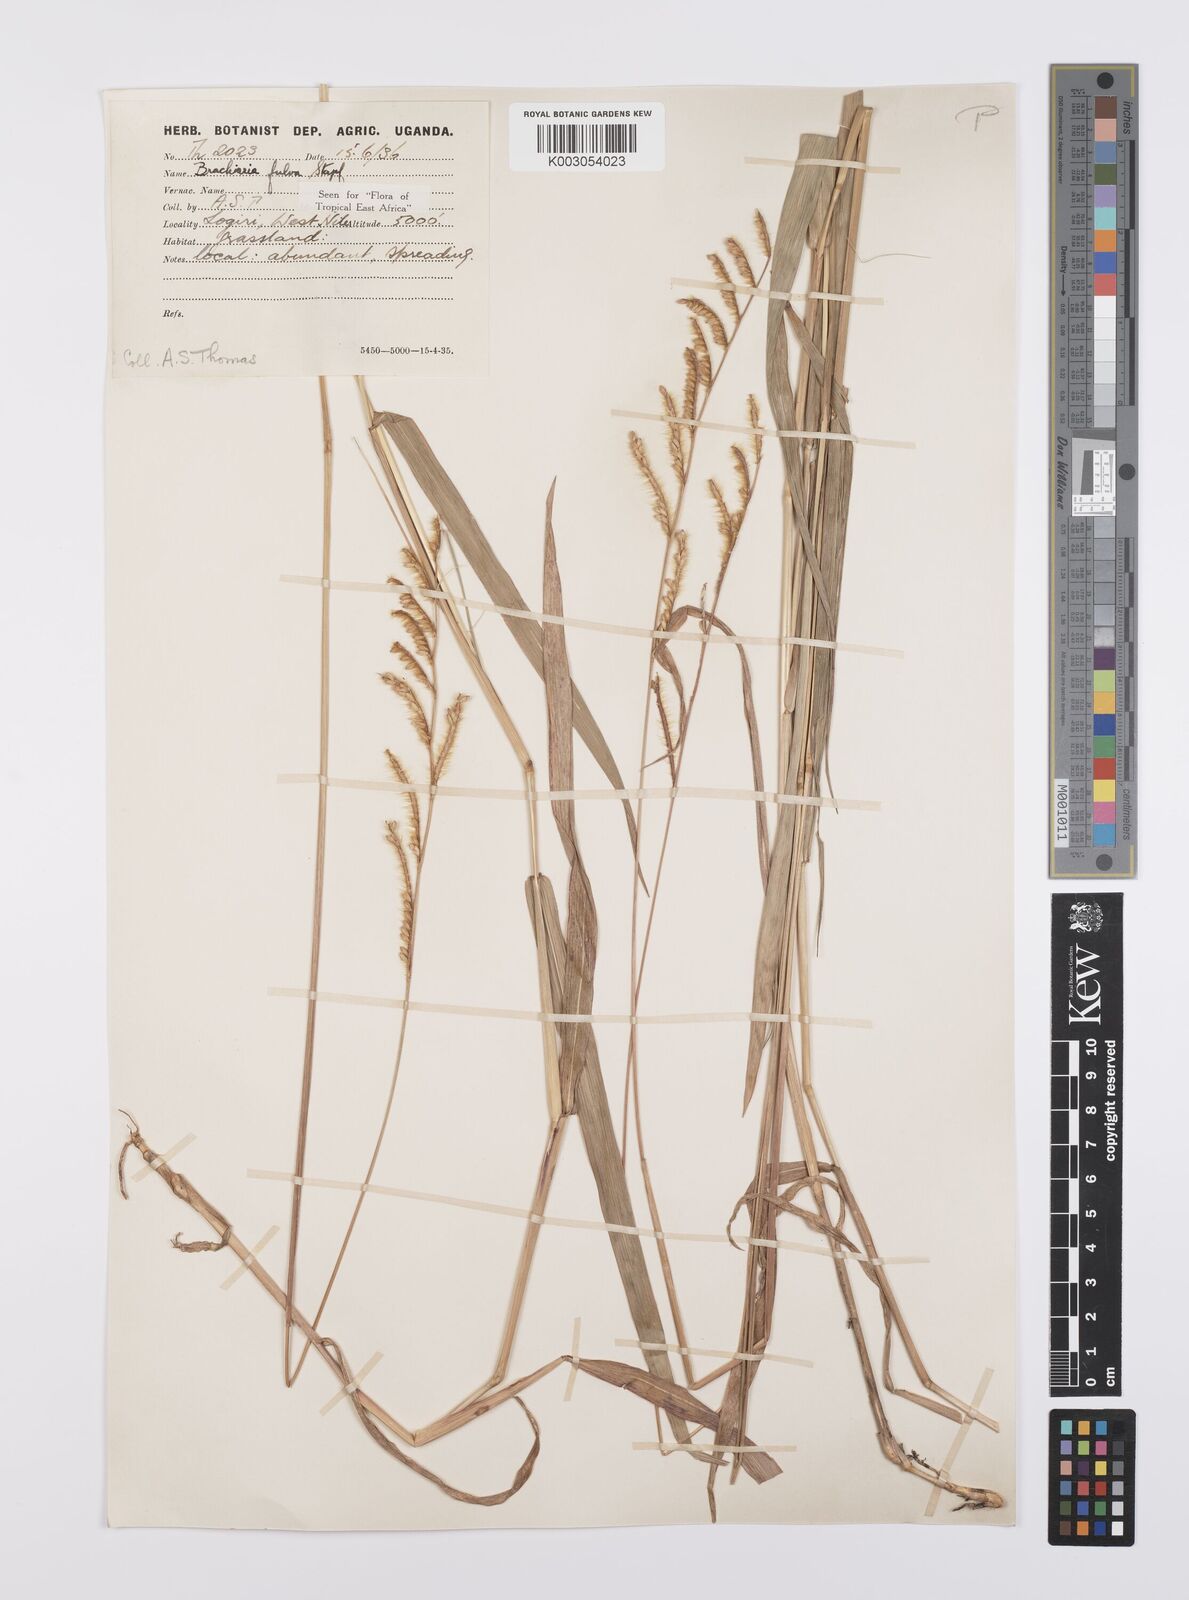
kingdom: Plantae
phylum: Tracheophyta
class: Liliopsida
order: Poales
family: Poaceae
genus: Urochloa
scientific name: Urochloa jubata
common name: Buffalograss
